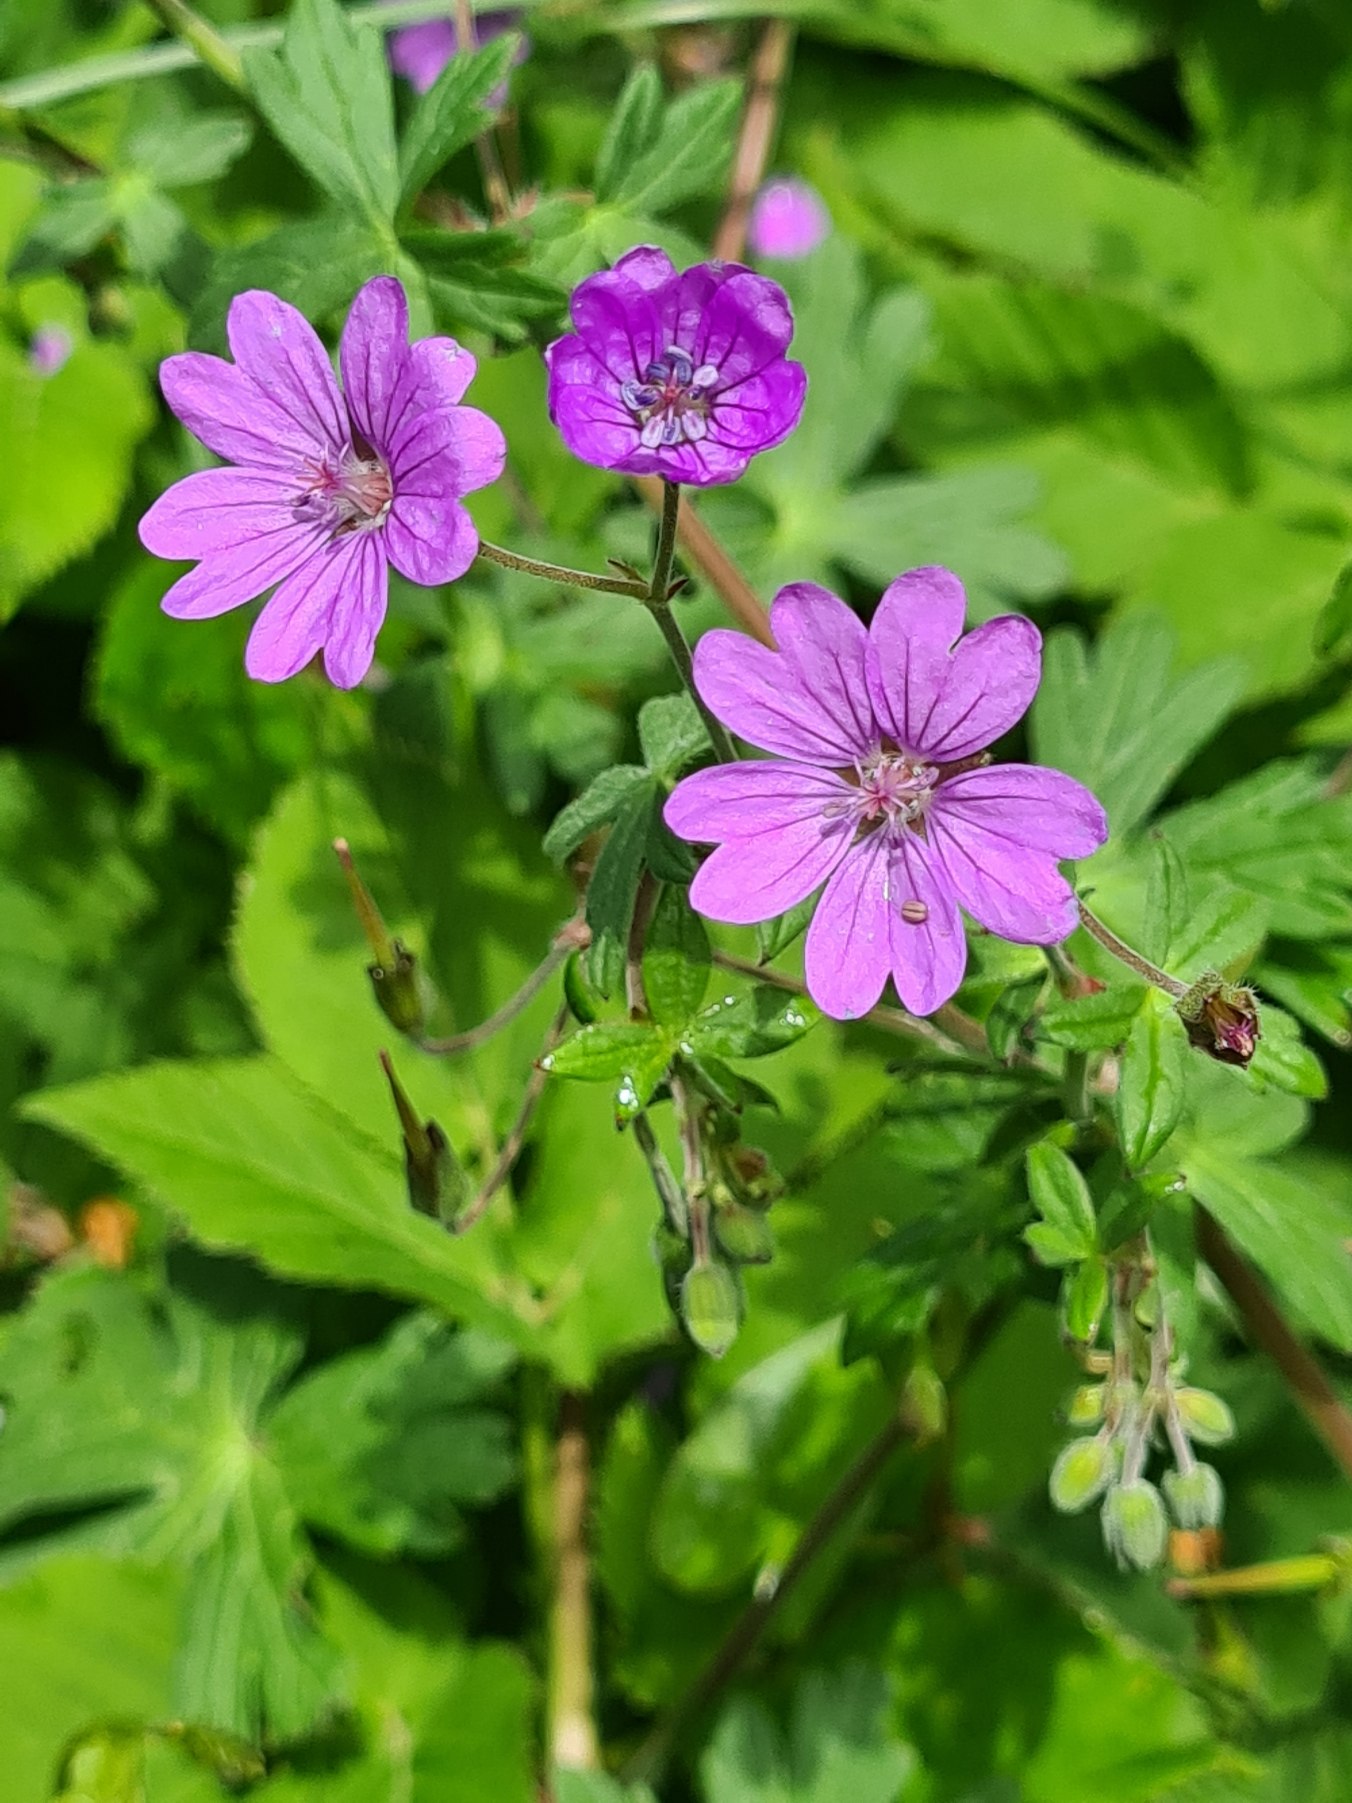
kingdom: Plantae
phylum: Tracheophyta
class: Magnoliopsida
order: Geraniales
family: Geraniaceae
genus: Geranium
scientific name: Geranium pyrenaicum
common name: Pyrenæisk storkenæb
